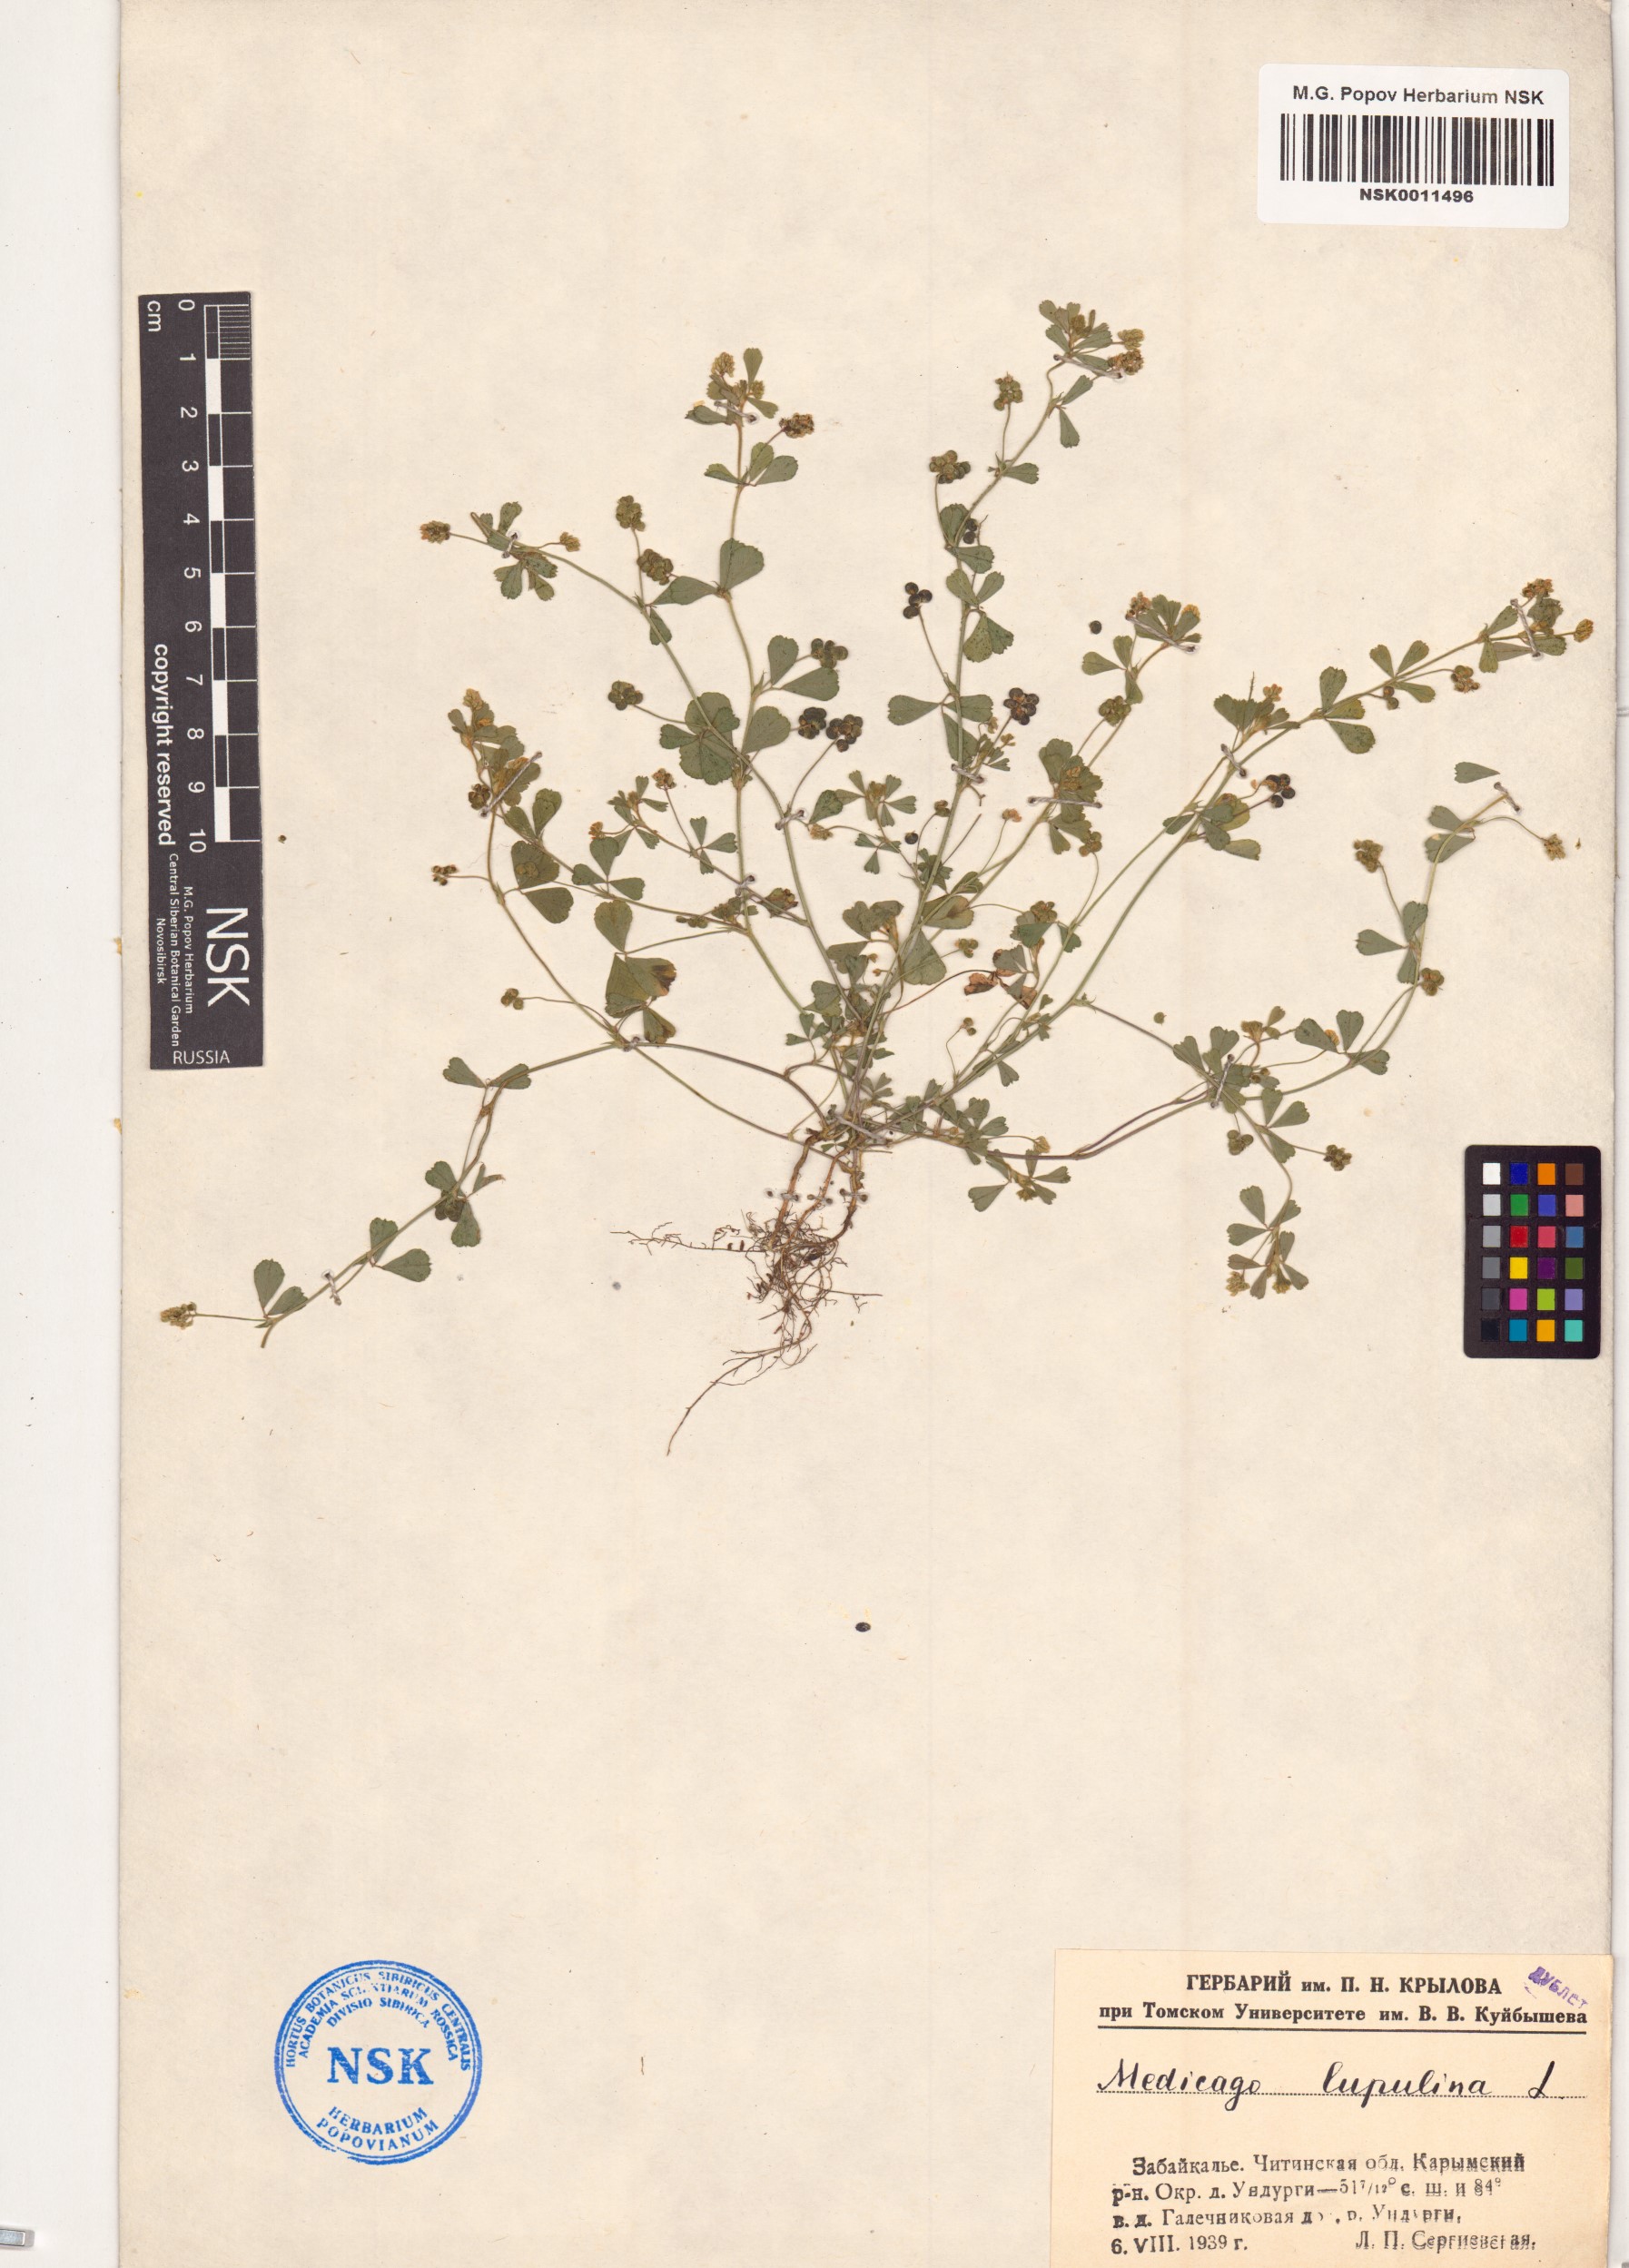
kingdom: Plantae
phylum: Tracheophyta
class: Magnoliopsida
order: Fabales
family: Fabaceae
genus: Medicago
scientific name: Medicago lupulina
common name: Black medick
